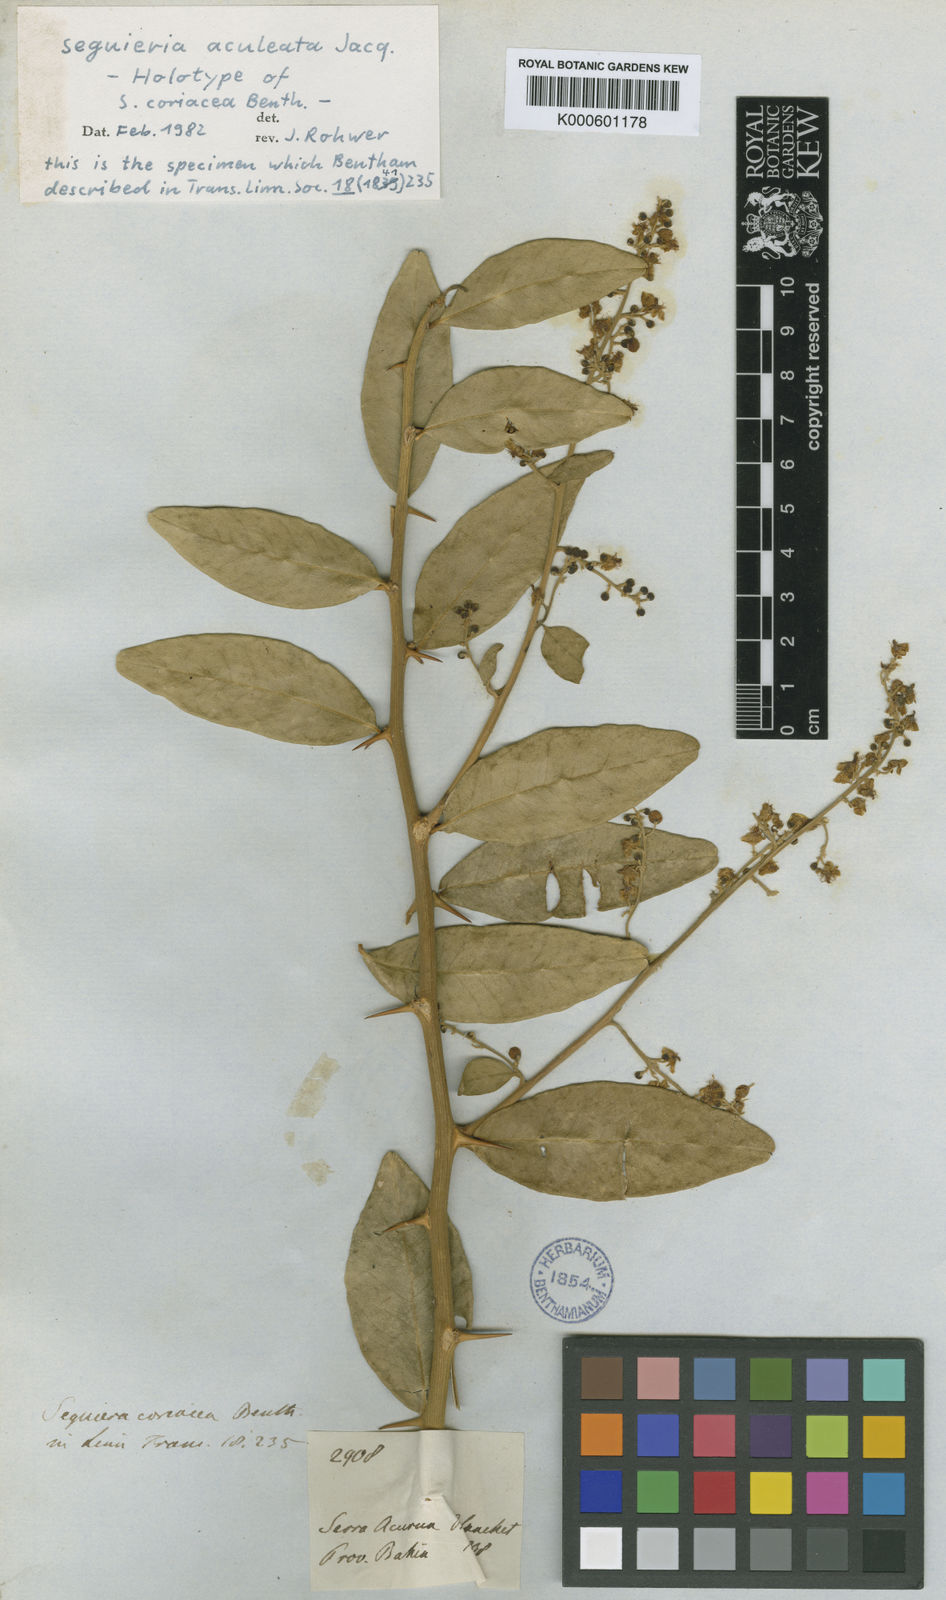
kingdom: Plantae
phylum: Tracheophyta
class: Magnoliopsida
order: Caryophyllales
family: Phytolaccaceae
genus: Seguieria
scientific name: Seguieria aculeata
